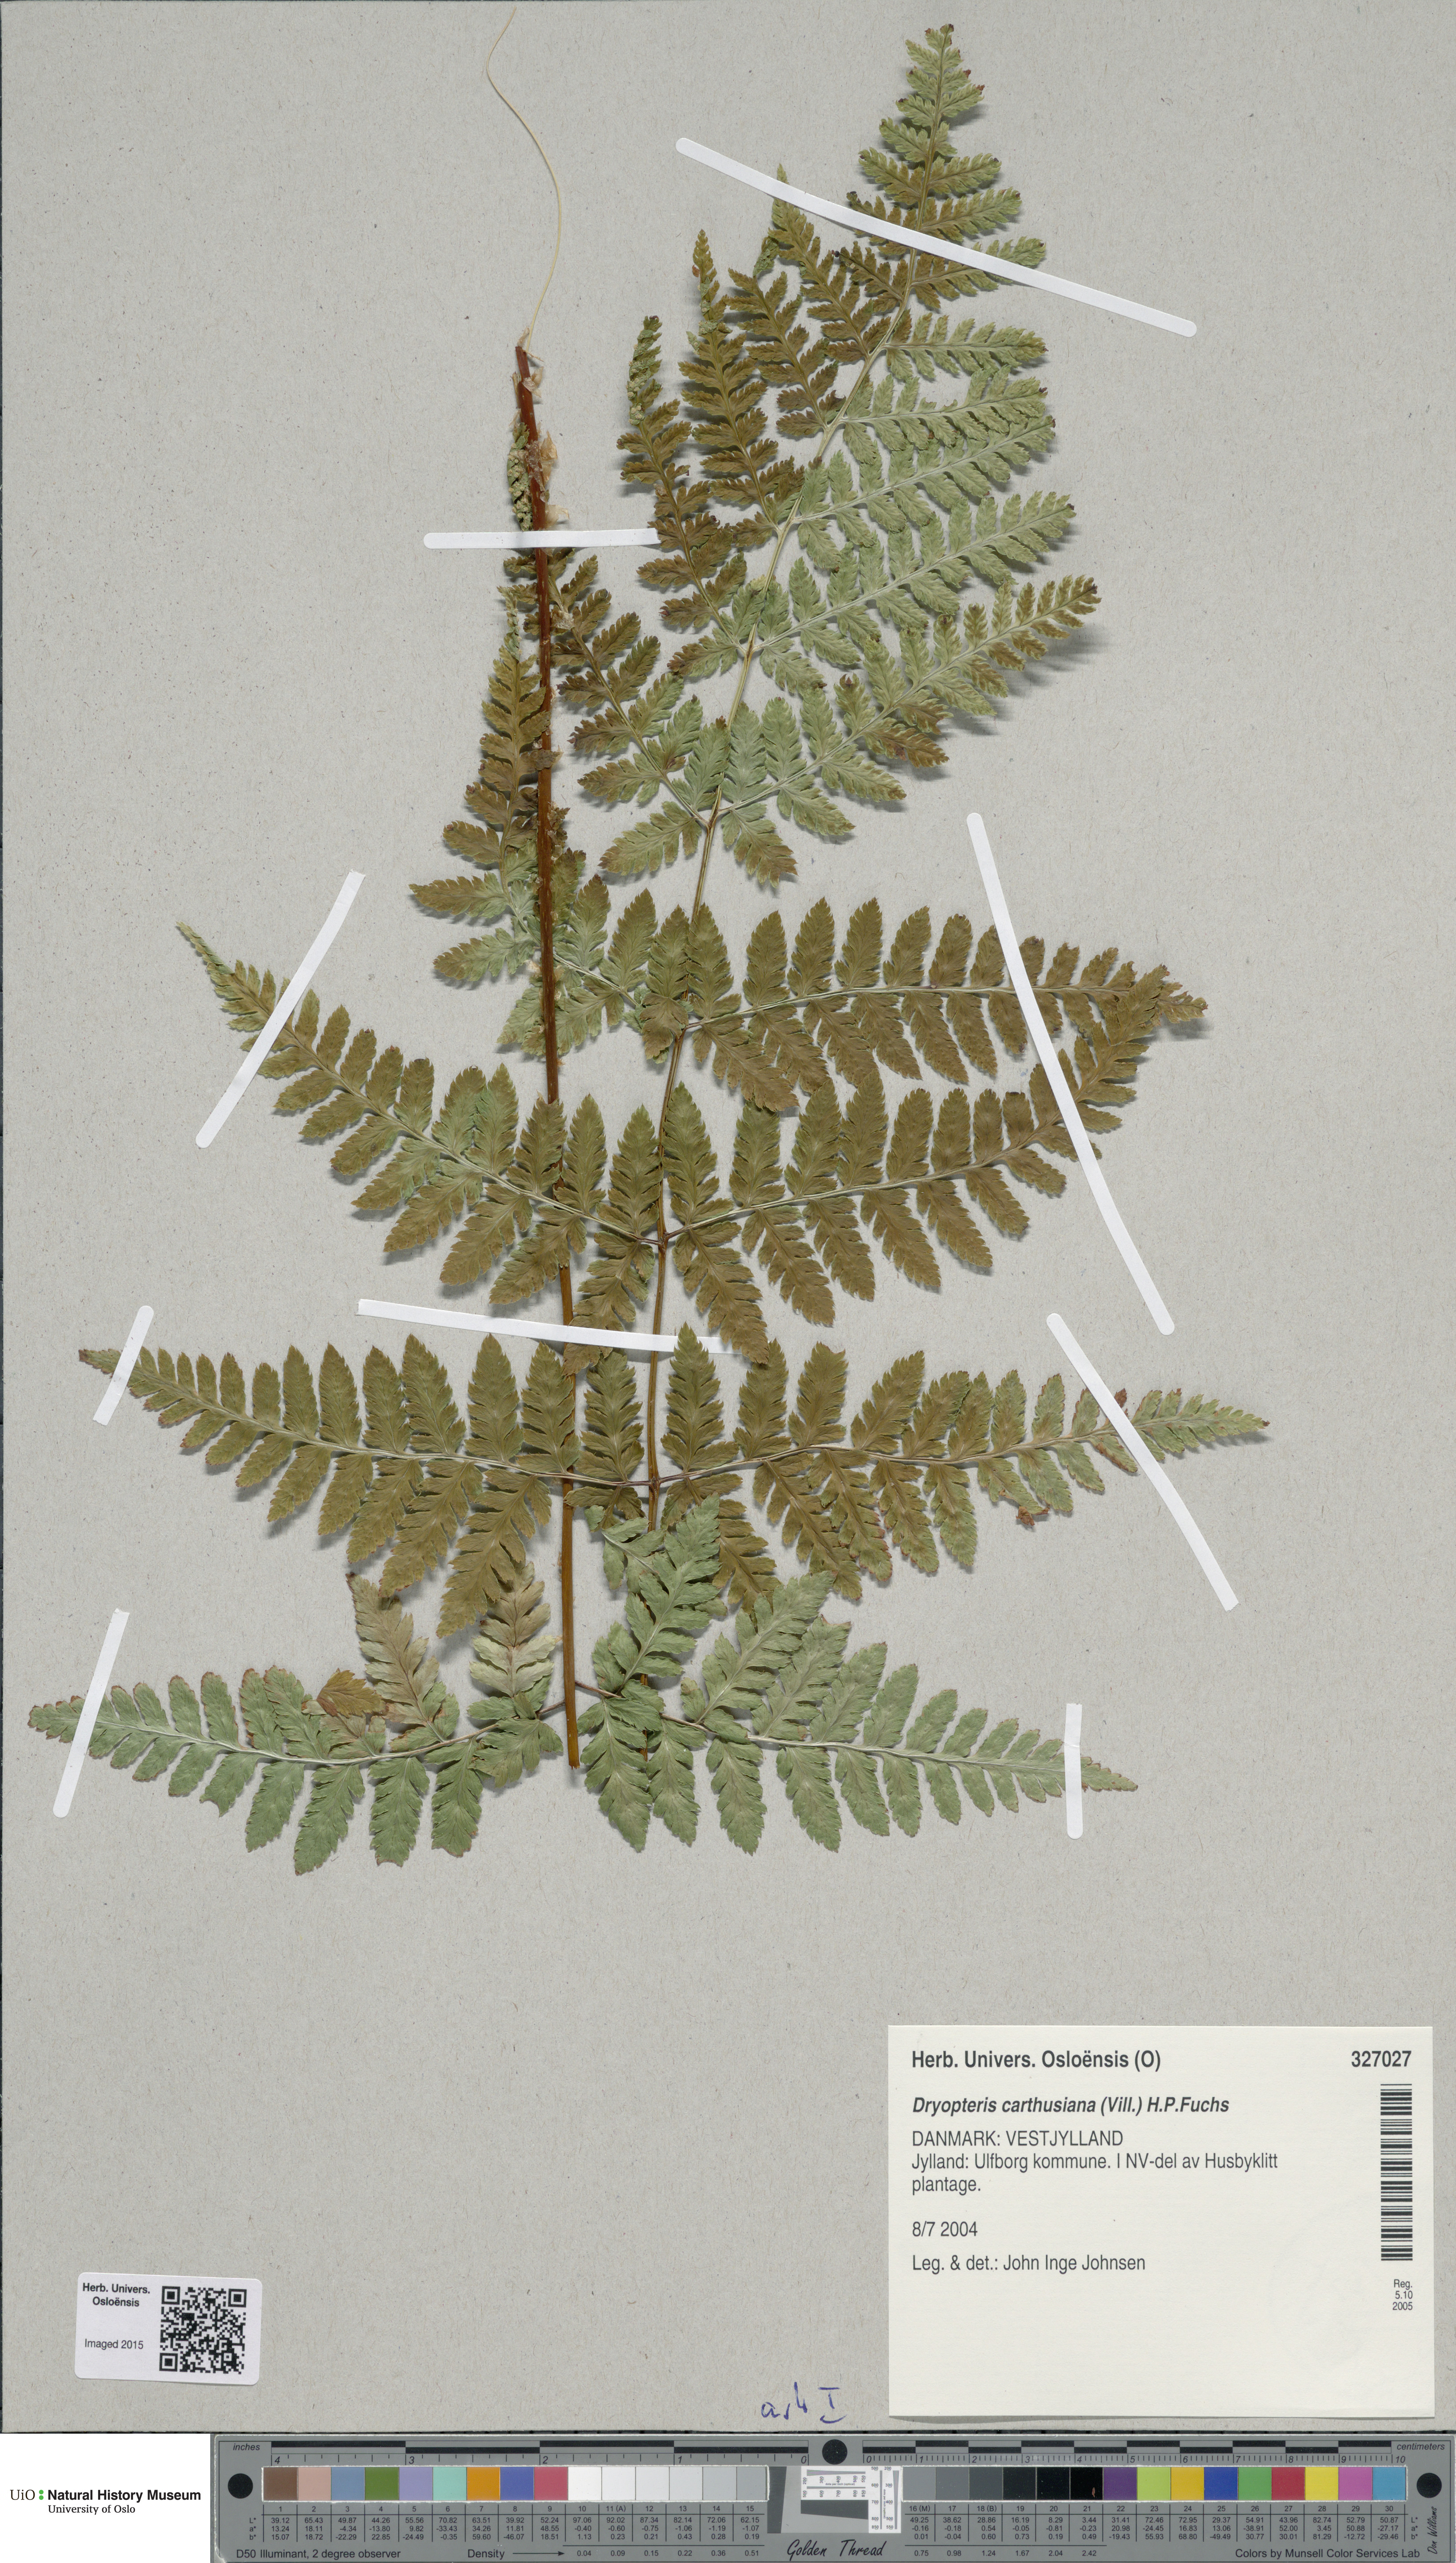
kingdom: Plantae
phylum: Tracheophyta
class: Polypodiopsida
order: Polypodiales
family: Dryopteridaceae
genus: Dryopteris
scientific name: Dryopteris carthusiana
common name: Narrow buckler-fern
